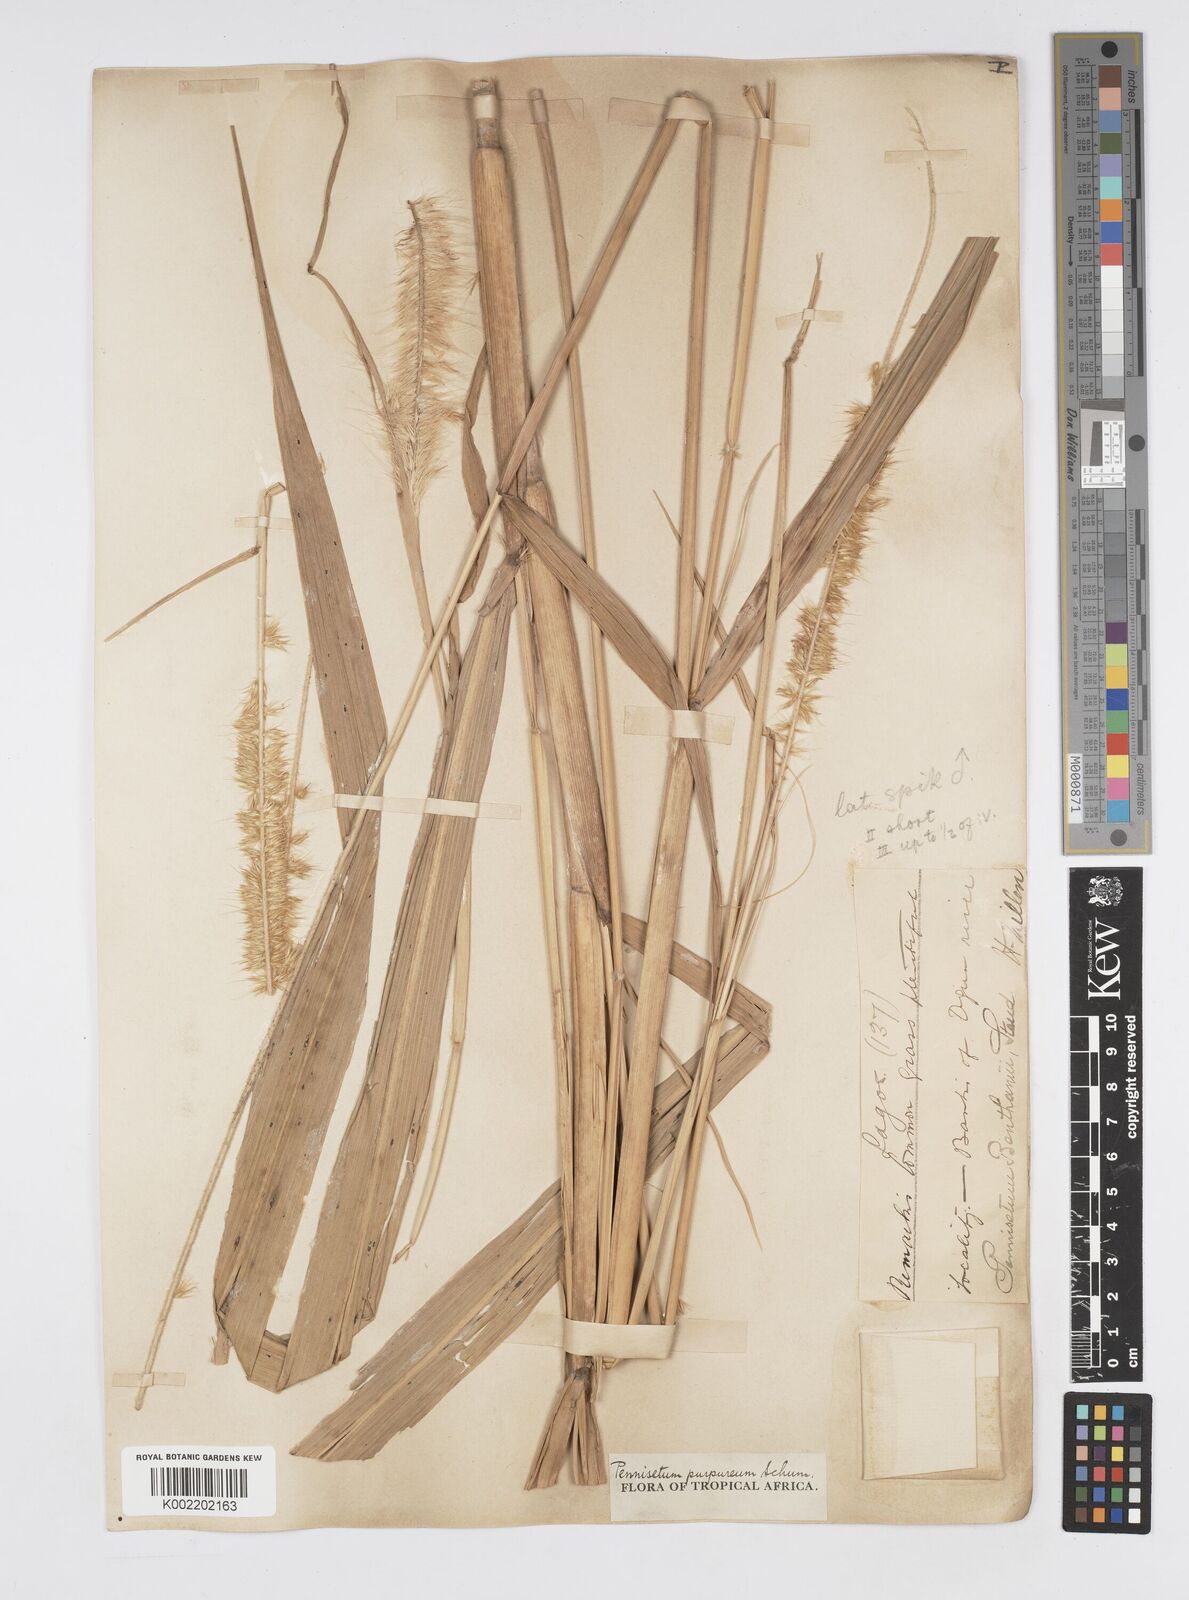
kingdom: Plantae
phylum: Tracheophyta
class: Liliopsida
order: Poales
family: Poaceae
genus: Cenchrus
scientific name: Cenchrus purpureus
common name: Elephant grass
